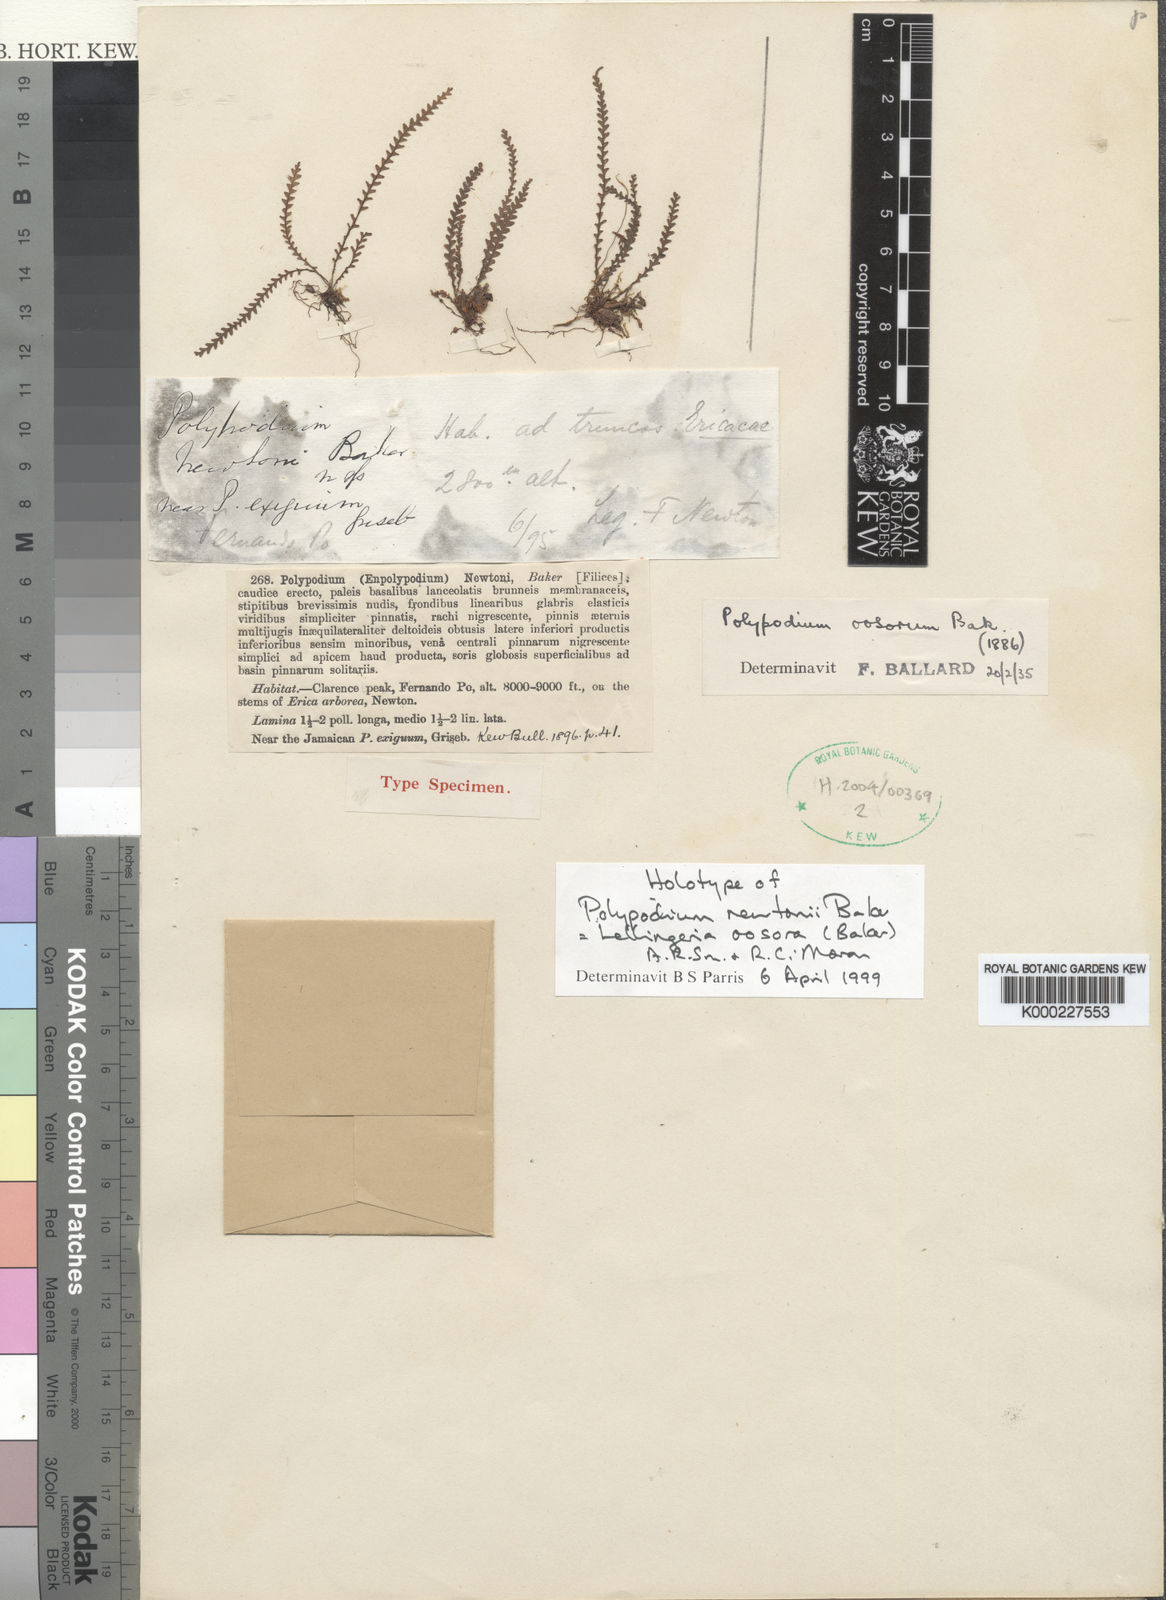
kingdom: Plantae
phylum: Tracheophyta
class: Polypodiopsida
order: Polypodiales
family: Polypodiaceae
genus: Stenogrammitis
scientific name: Stenogrammitis oosora
